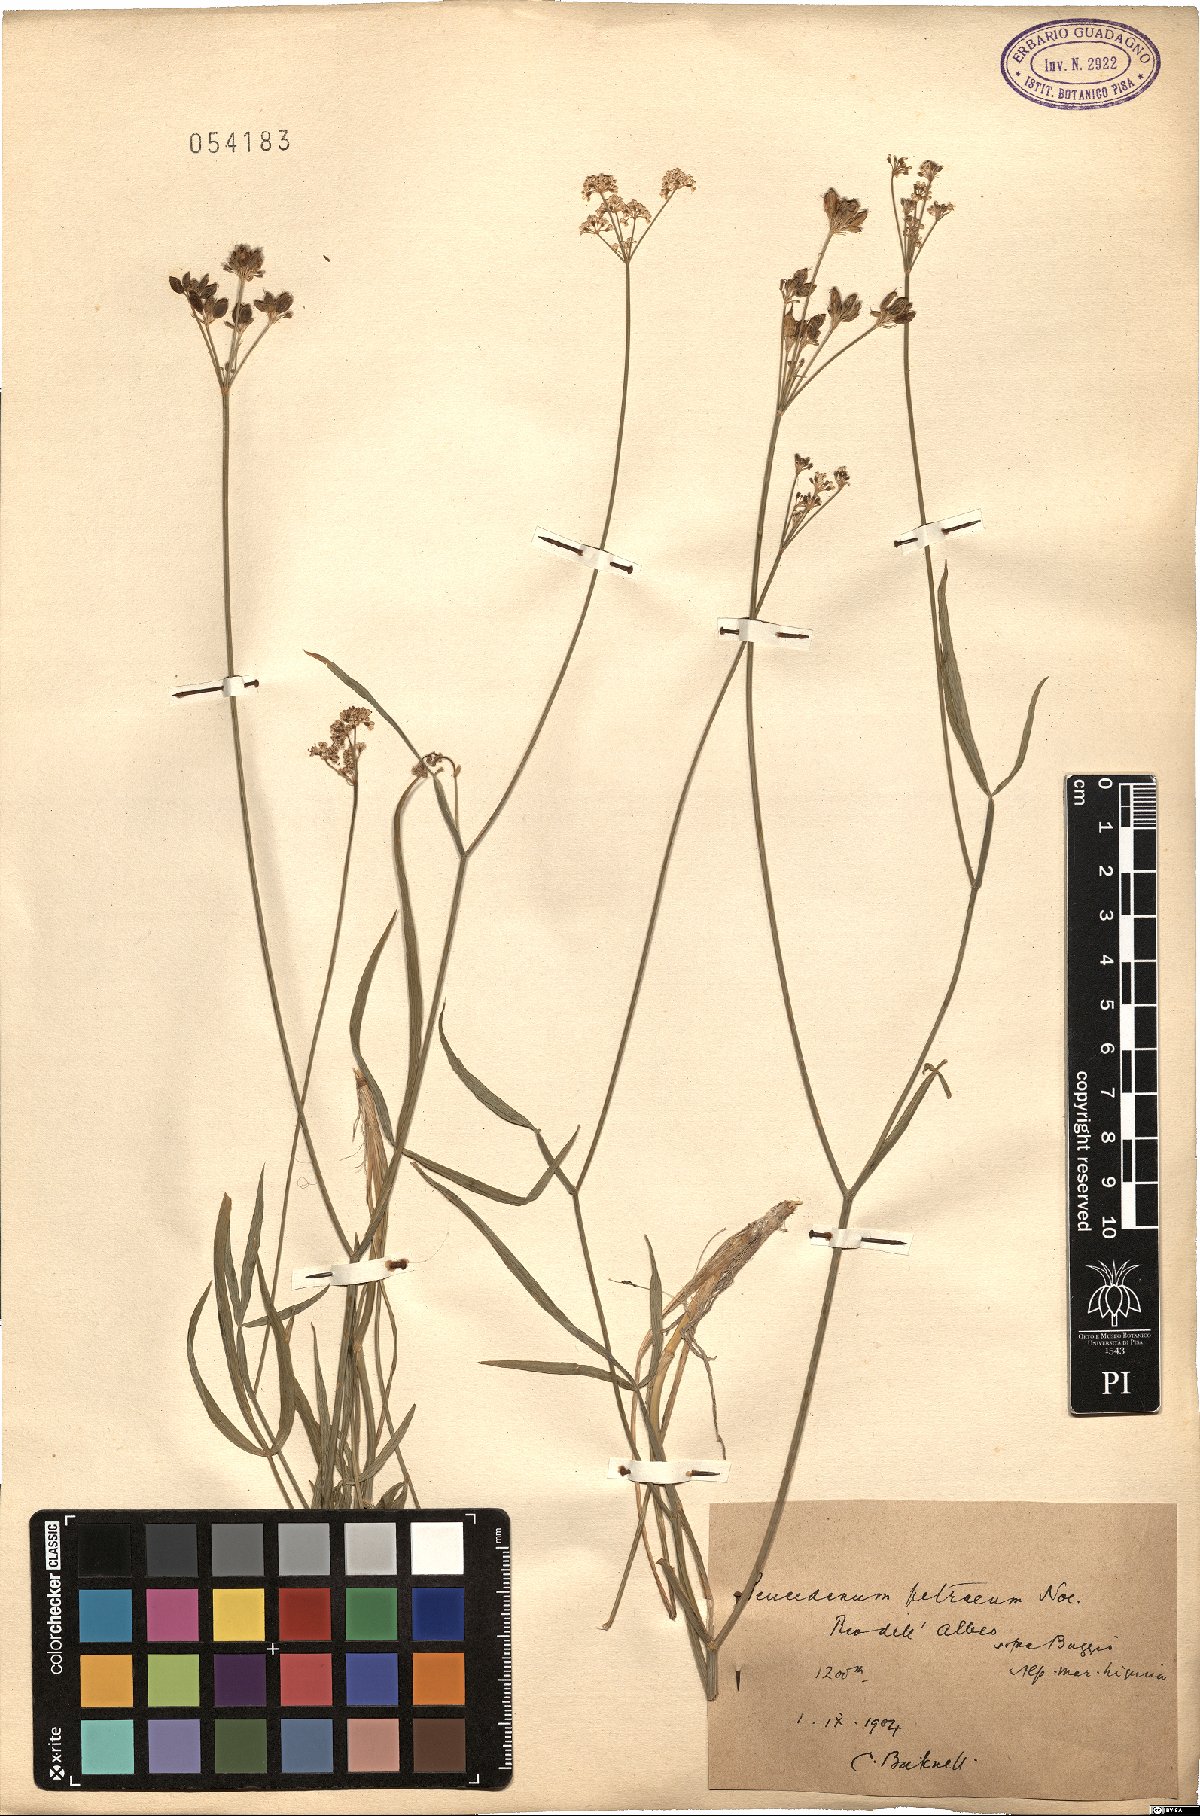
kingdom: Plantae
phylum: Tracheophyta
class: Magnoliopsida
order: Apiales
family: Apiaceae
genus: Dichoropetalum
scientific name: Dichoropetalum schottii
